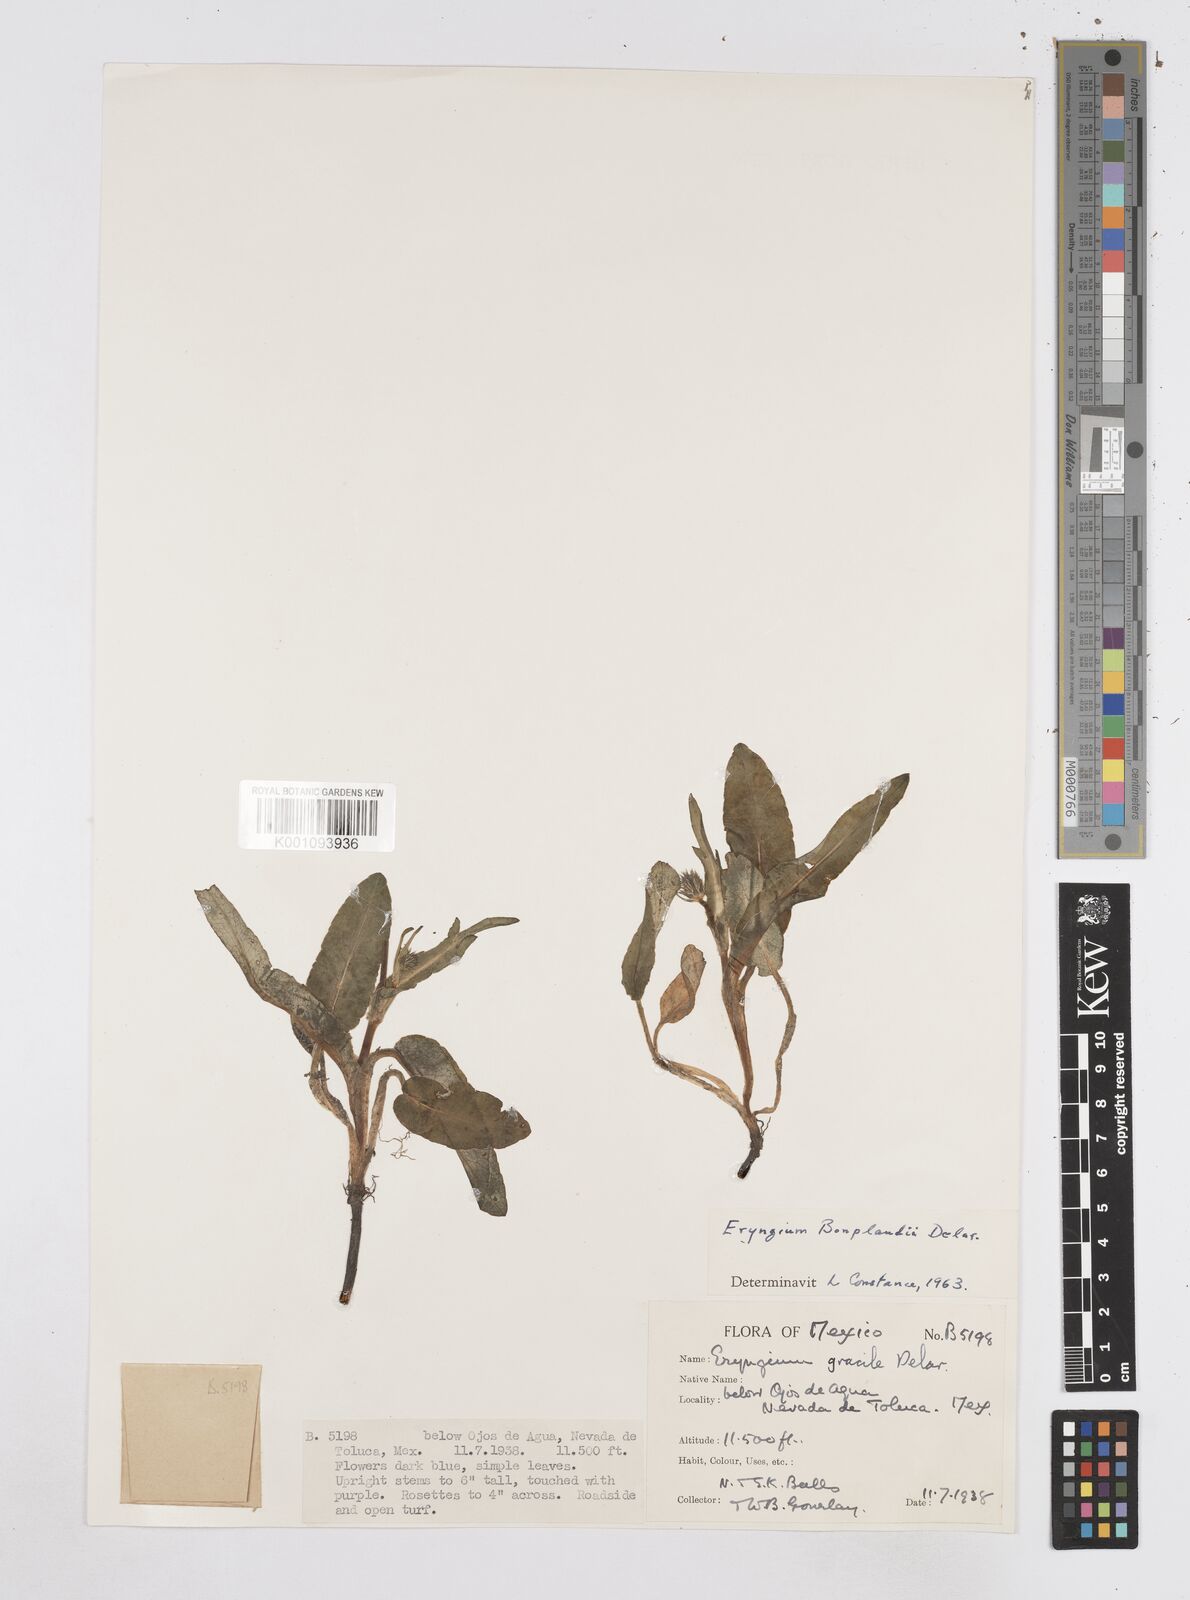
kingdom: Plantae
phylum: Tracheophyta
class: Magnoliopsida
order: Apiales
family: Apiaceae
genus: Eryngium
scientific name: Eryngium bonplandii
